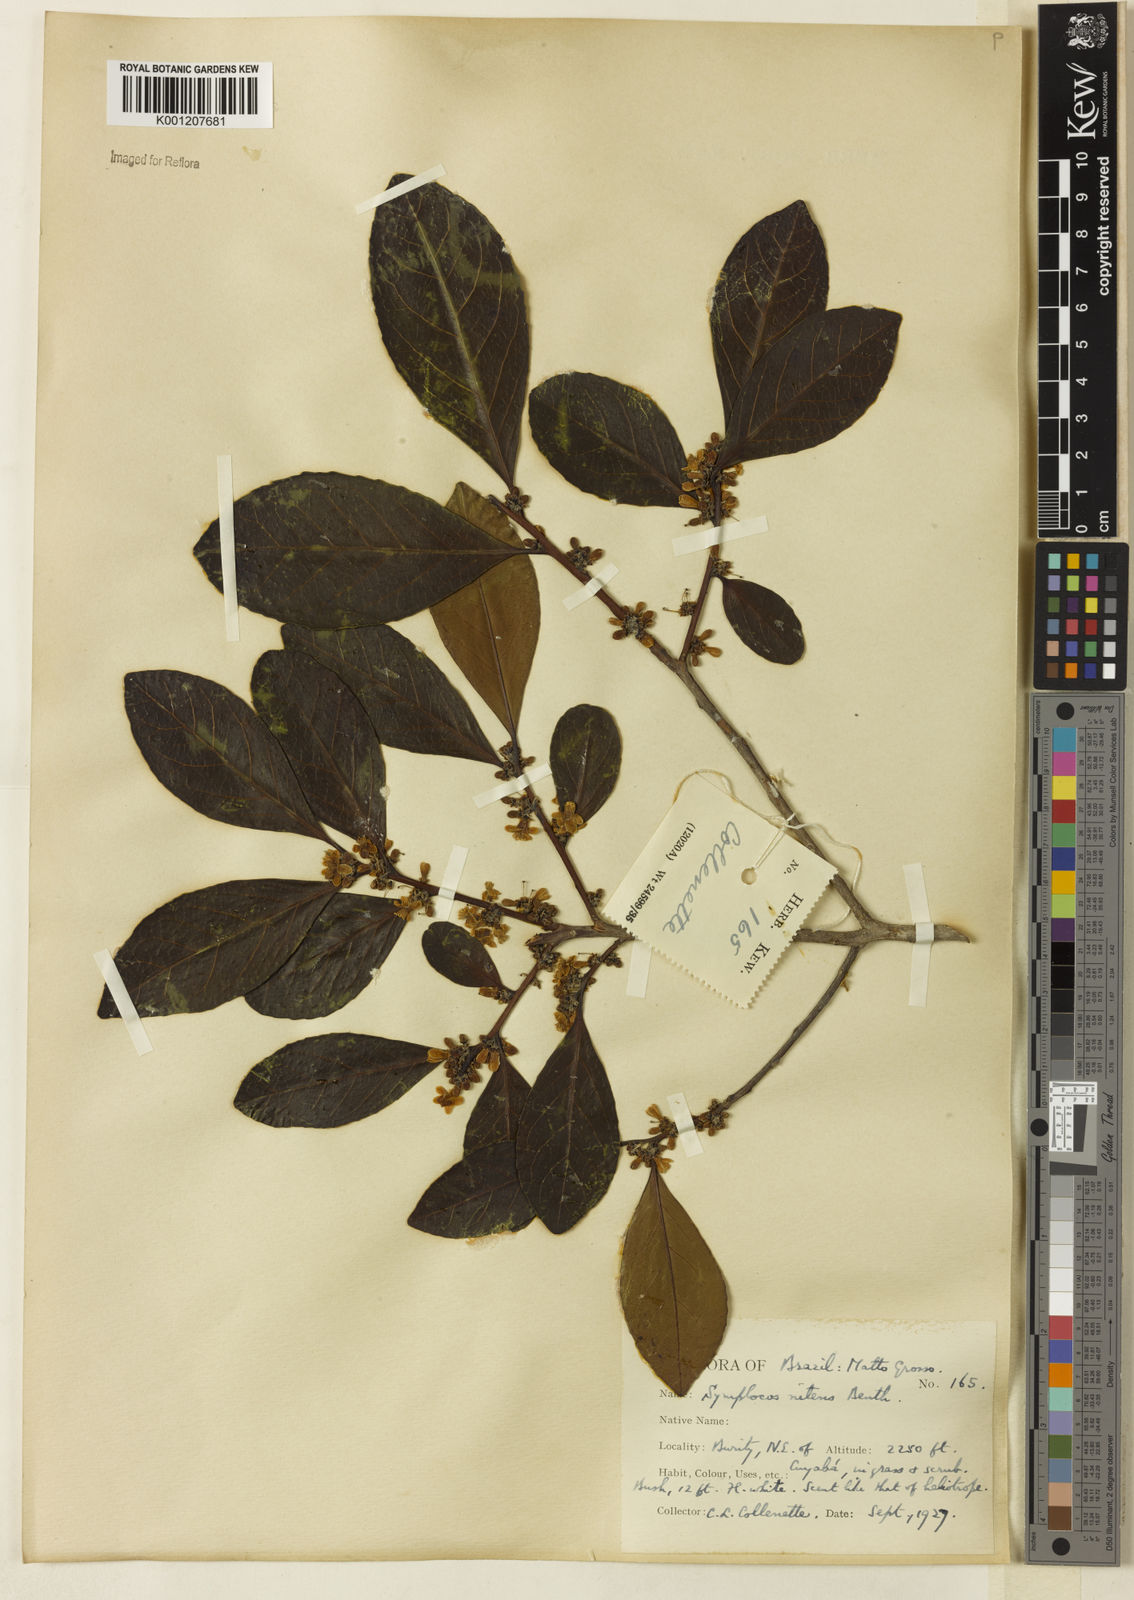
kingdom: Plantae
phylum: Tracheophyta
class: Magnoliopsida
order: Ericales
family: Symplocaceae
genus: Symplocos
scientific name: Symplocos nitens
